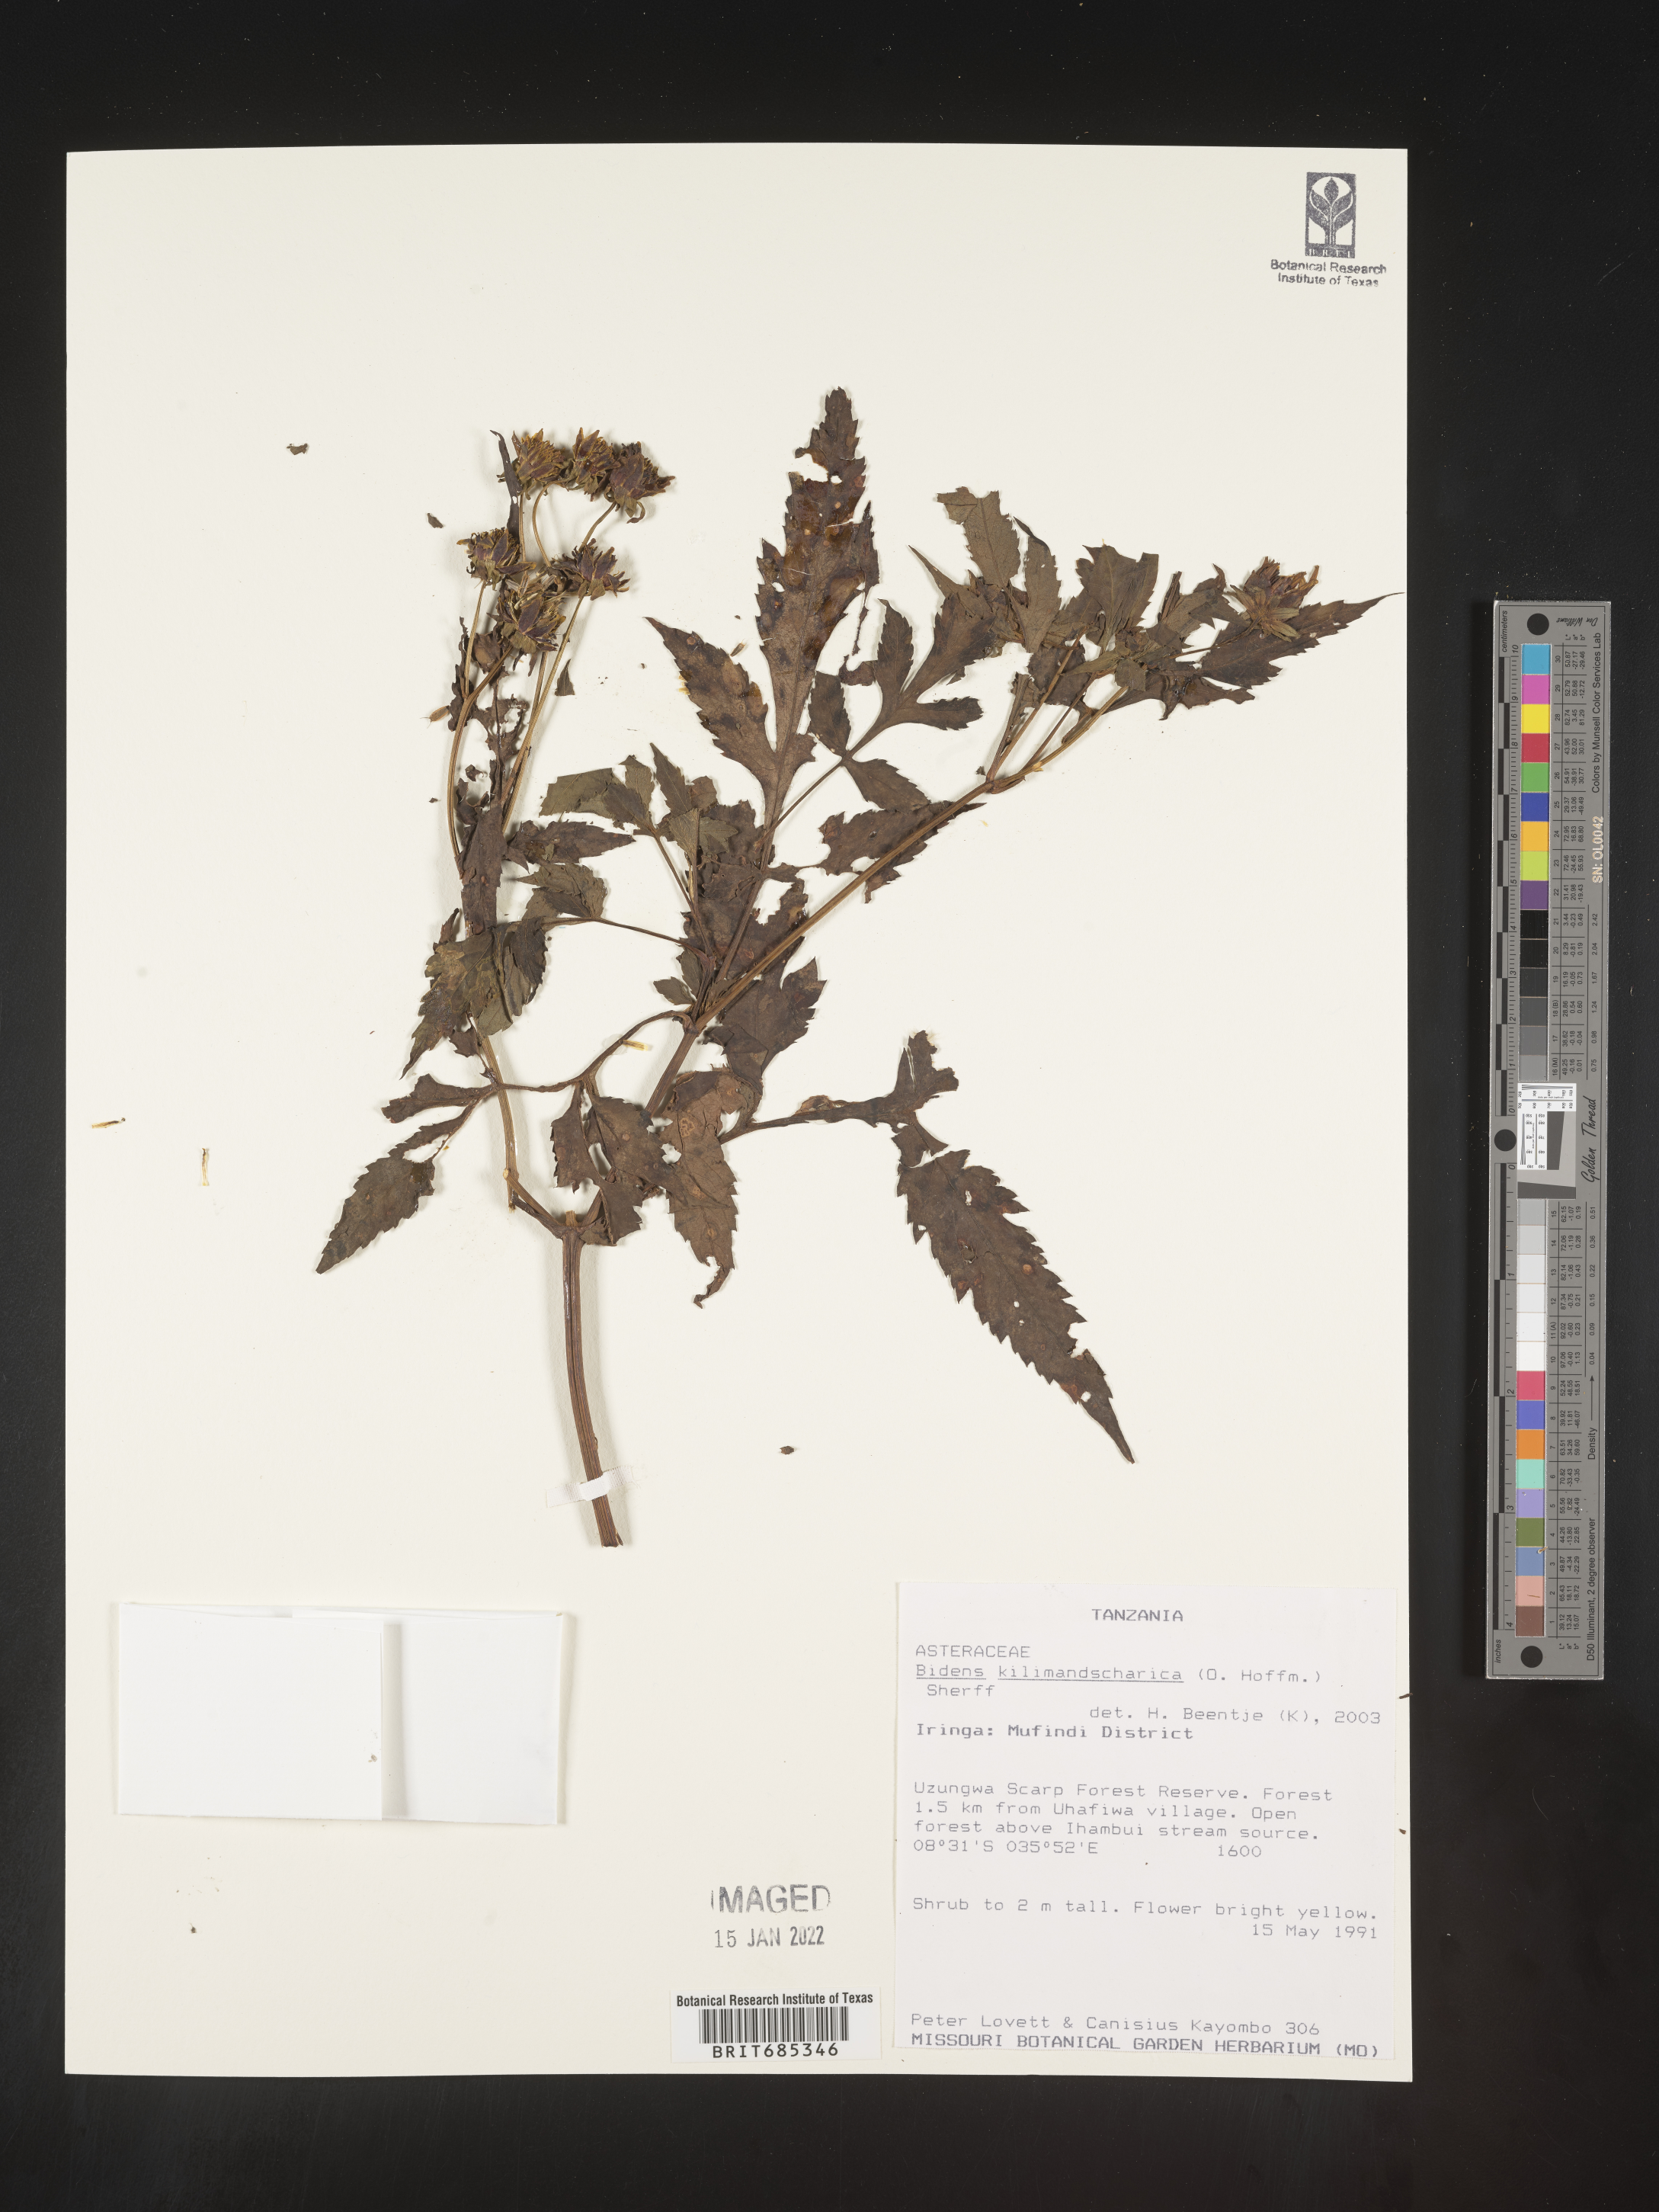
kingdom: Plantae
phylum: Tracheophyta
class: Magnoliopsida
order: Asterales
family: Asteraceae
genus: Bidens
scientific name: Bidens
